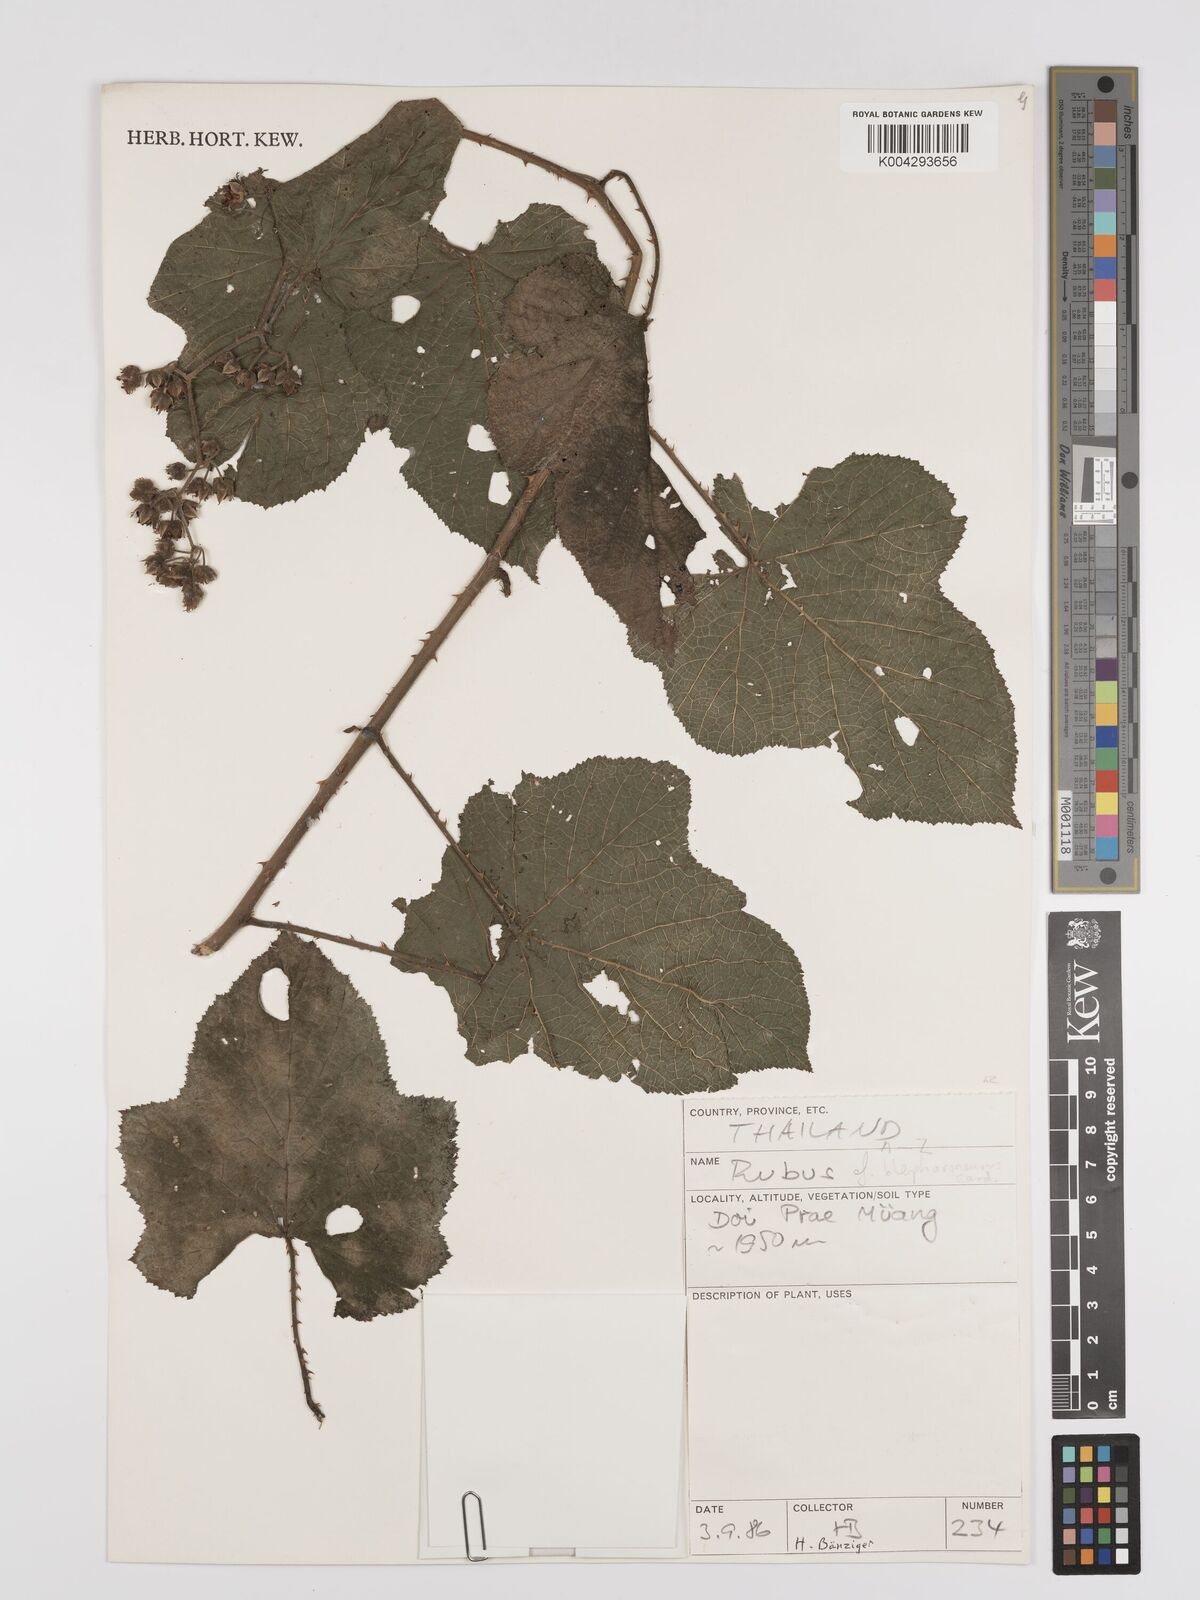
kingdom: Plantae
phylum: Tracheophyta
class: Magnoliopsida
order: Rosales
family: Rosaceae
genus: Rubus
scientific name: Rubus blepharoneurus
